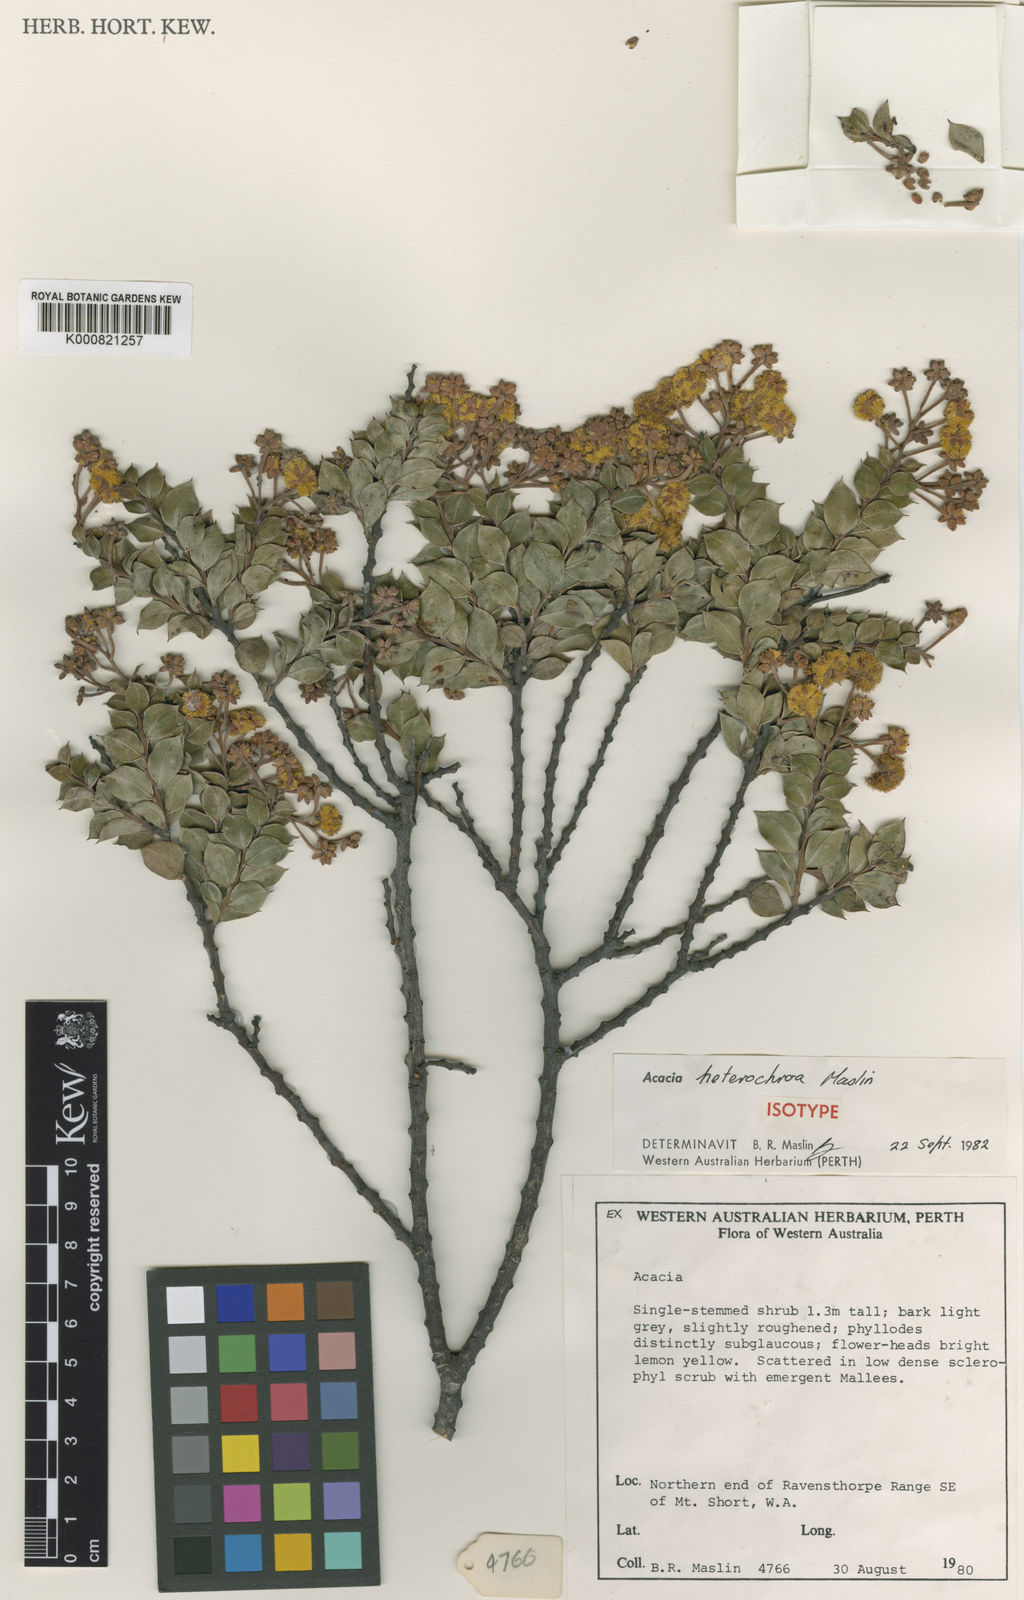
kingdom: Plantae
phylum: Tracheophyta
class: Magnoliopsida
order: Fabales
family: Fabaceae
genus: Acacia
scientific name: Acacia heterochroa
